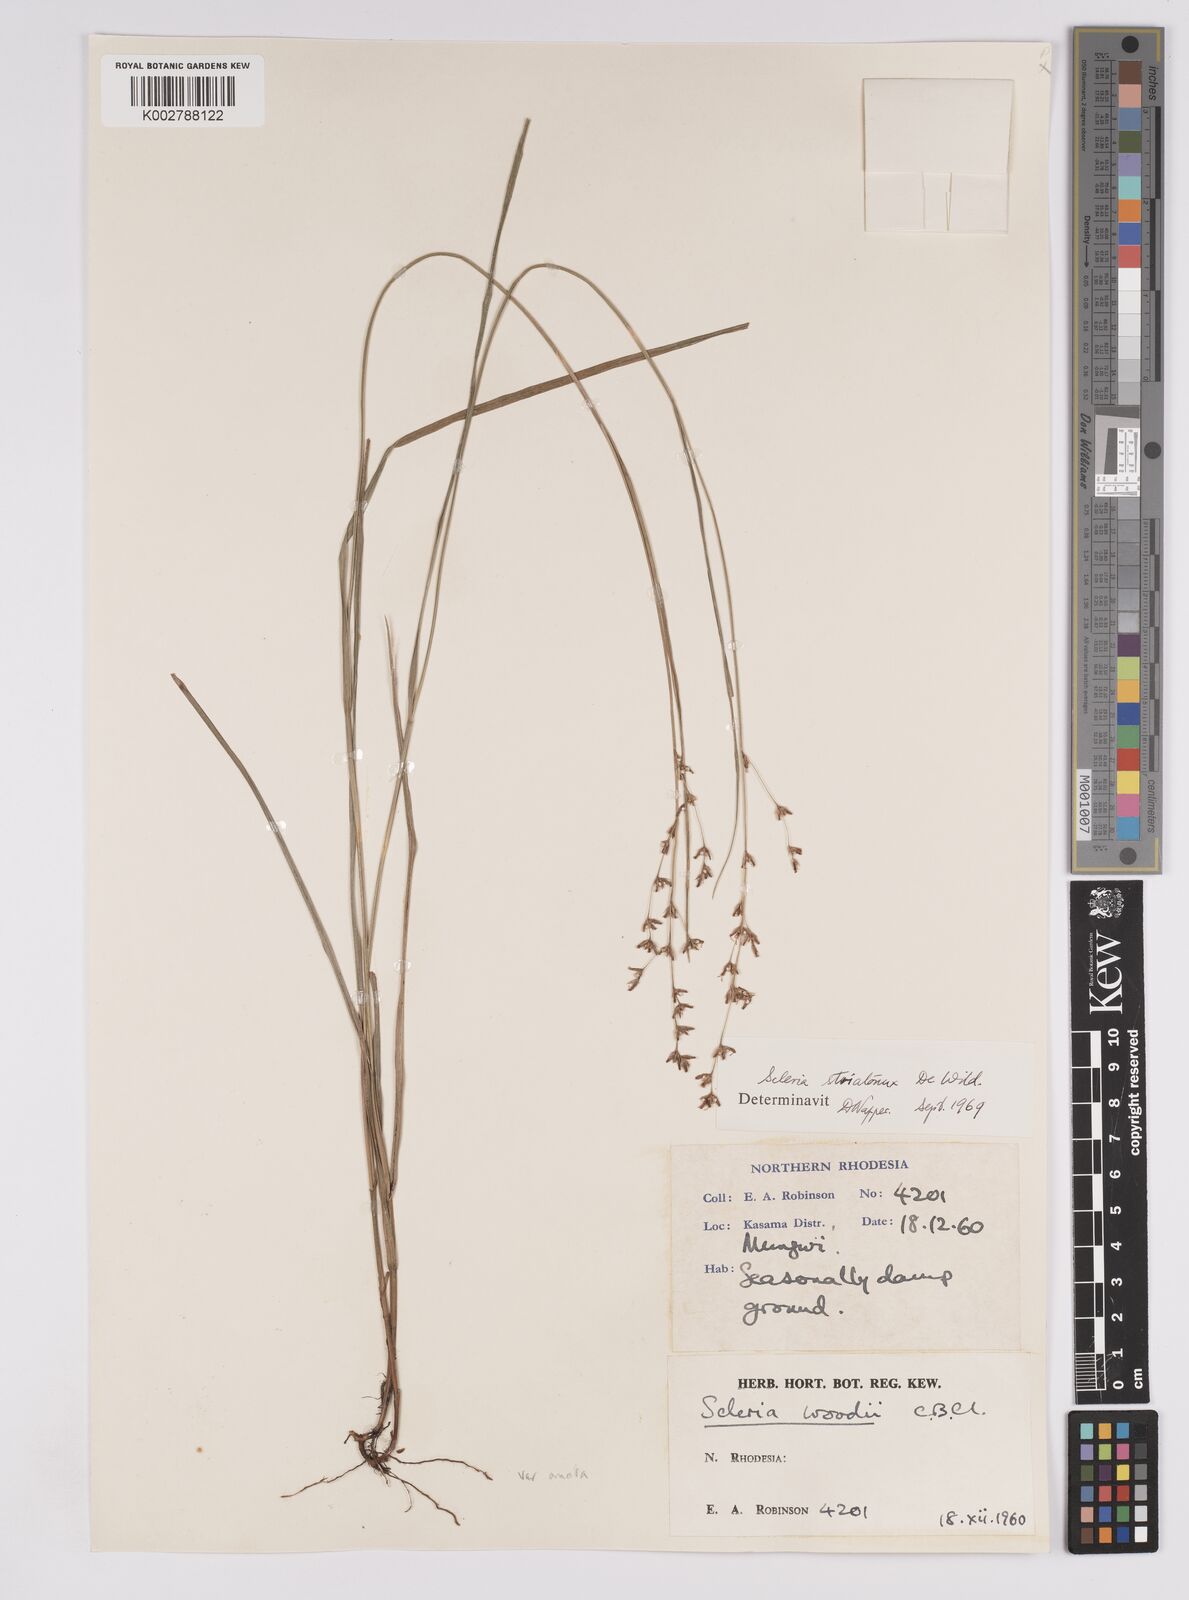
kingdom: Plantae
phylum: Tracheophyta
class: Liliopsida
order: Poales
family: Cyperaceae
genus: Scleria
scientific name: Scleria woodii
